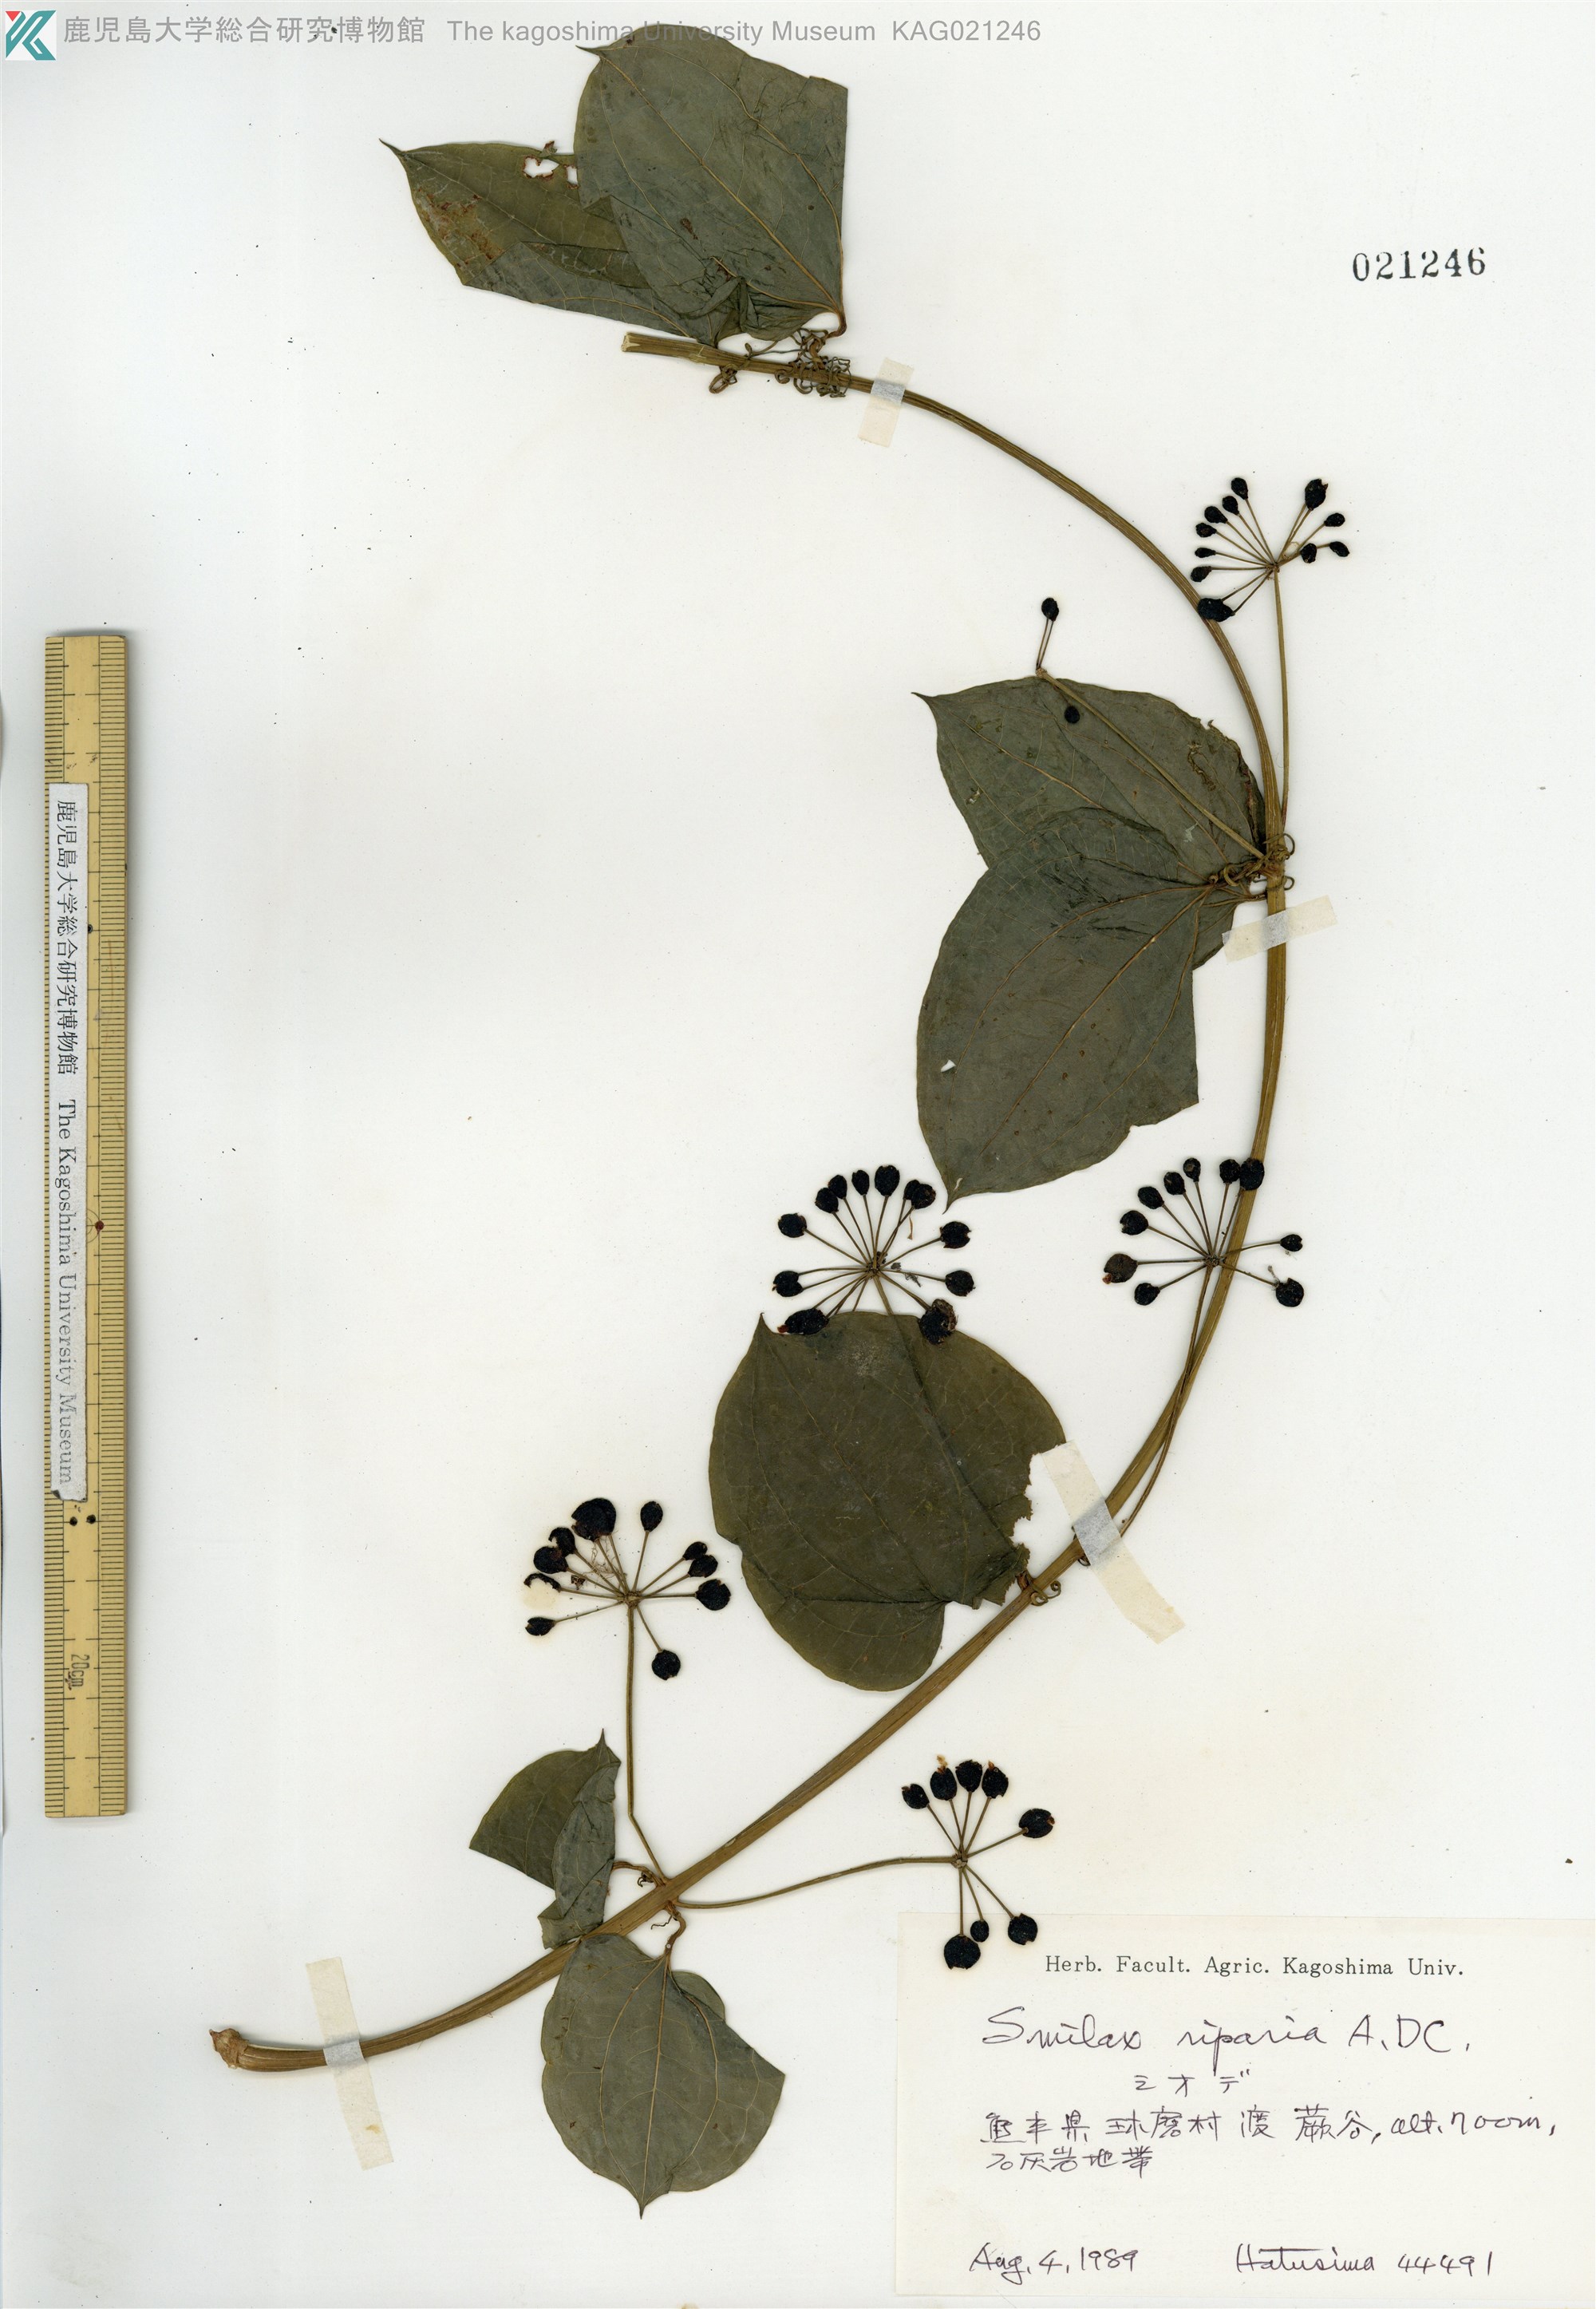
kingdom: Plantae
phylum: Tracheophyta
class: Liliopsida
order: Liliales
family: Smilacaceae
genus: Smilax
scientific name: Smilax riparia
